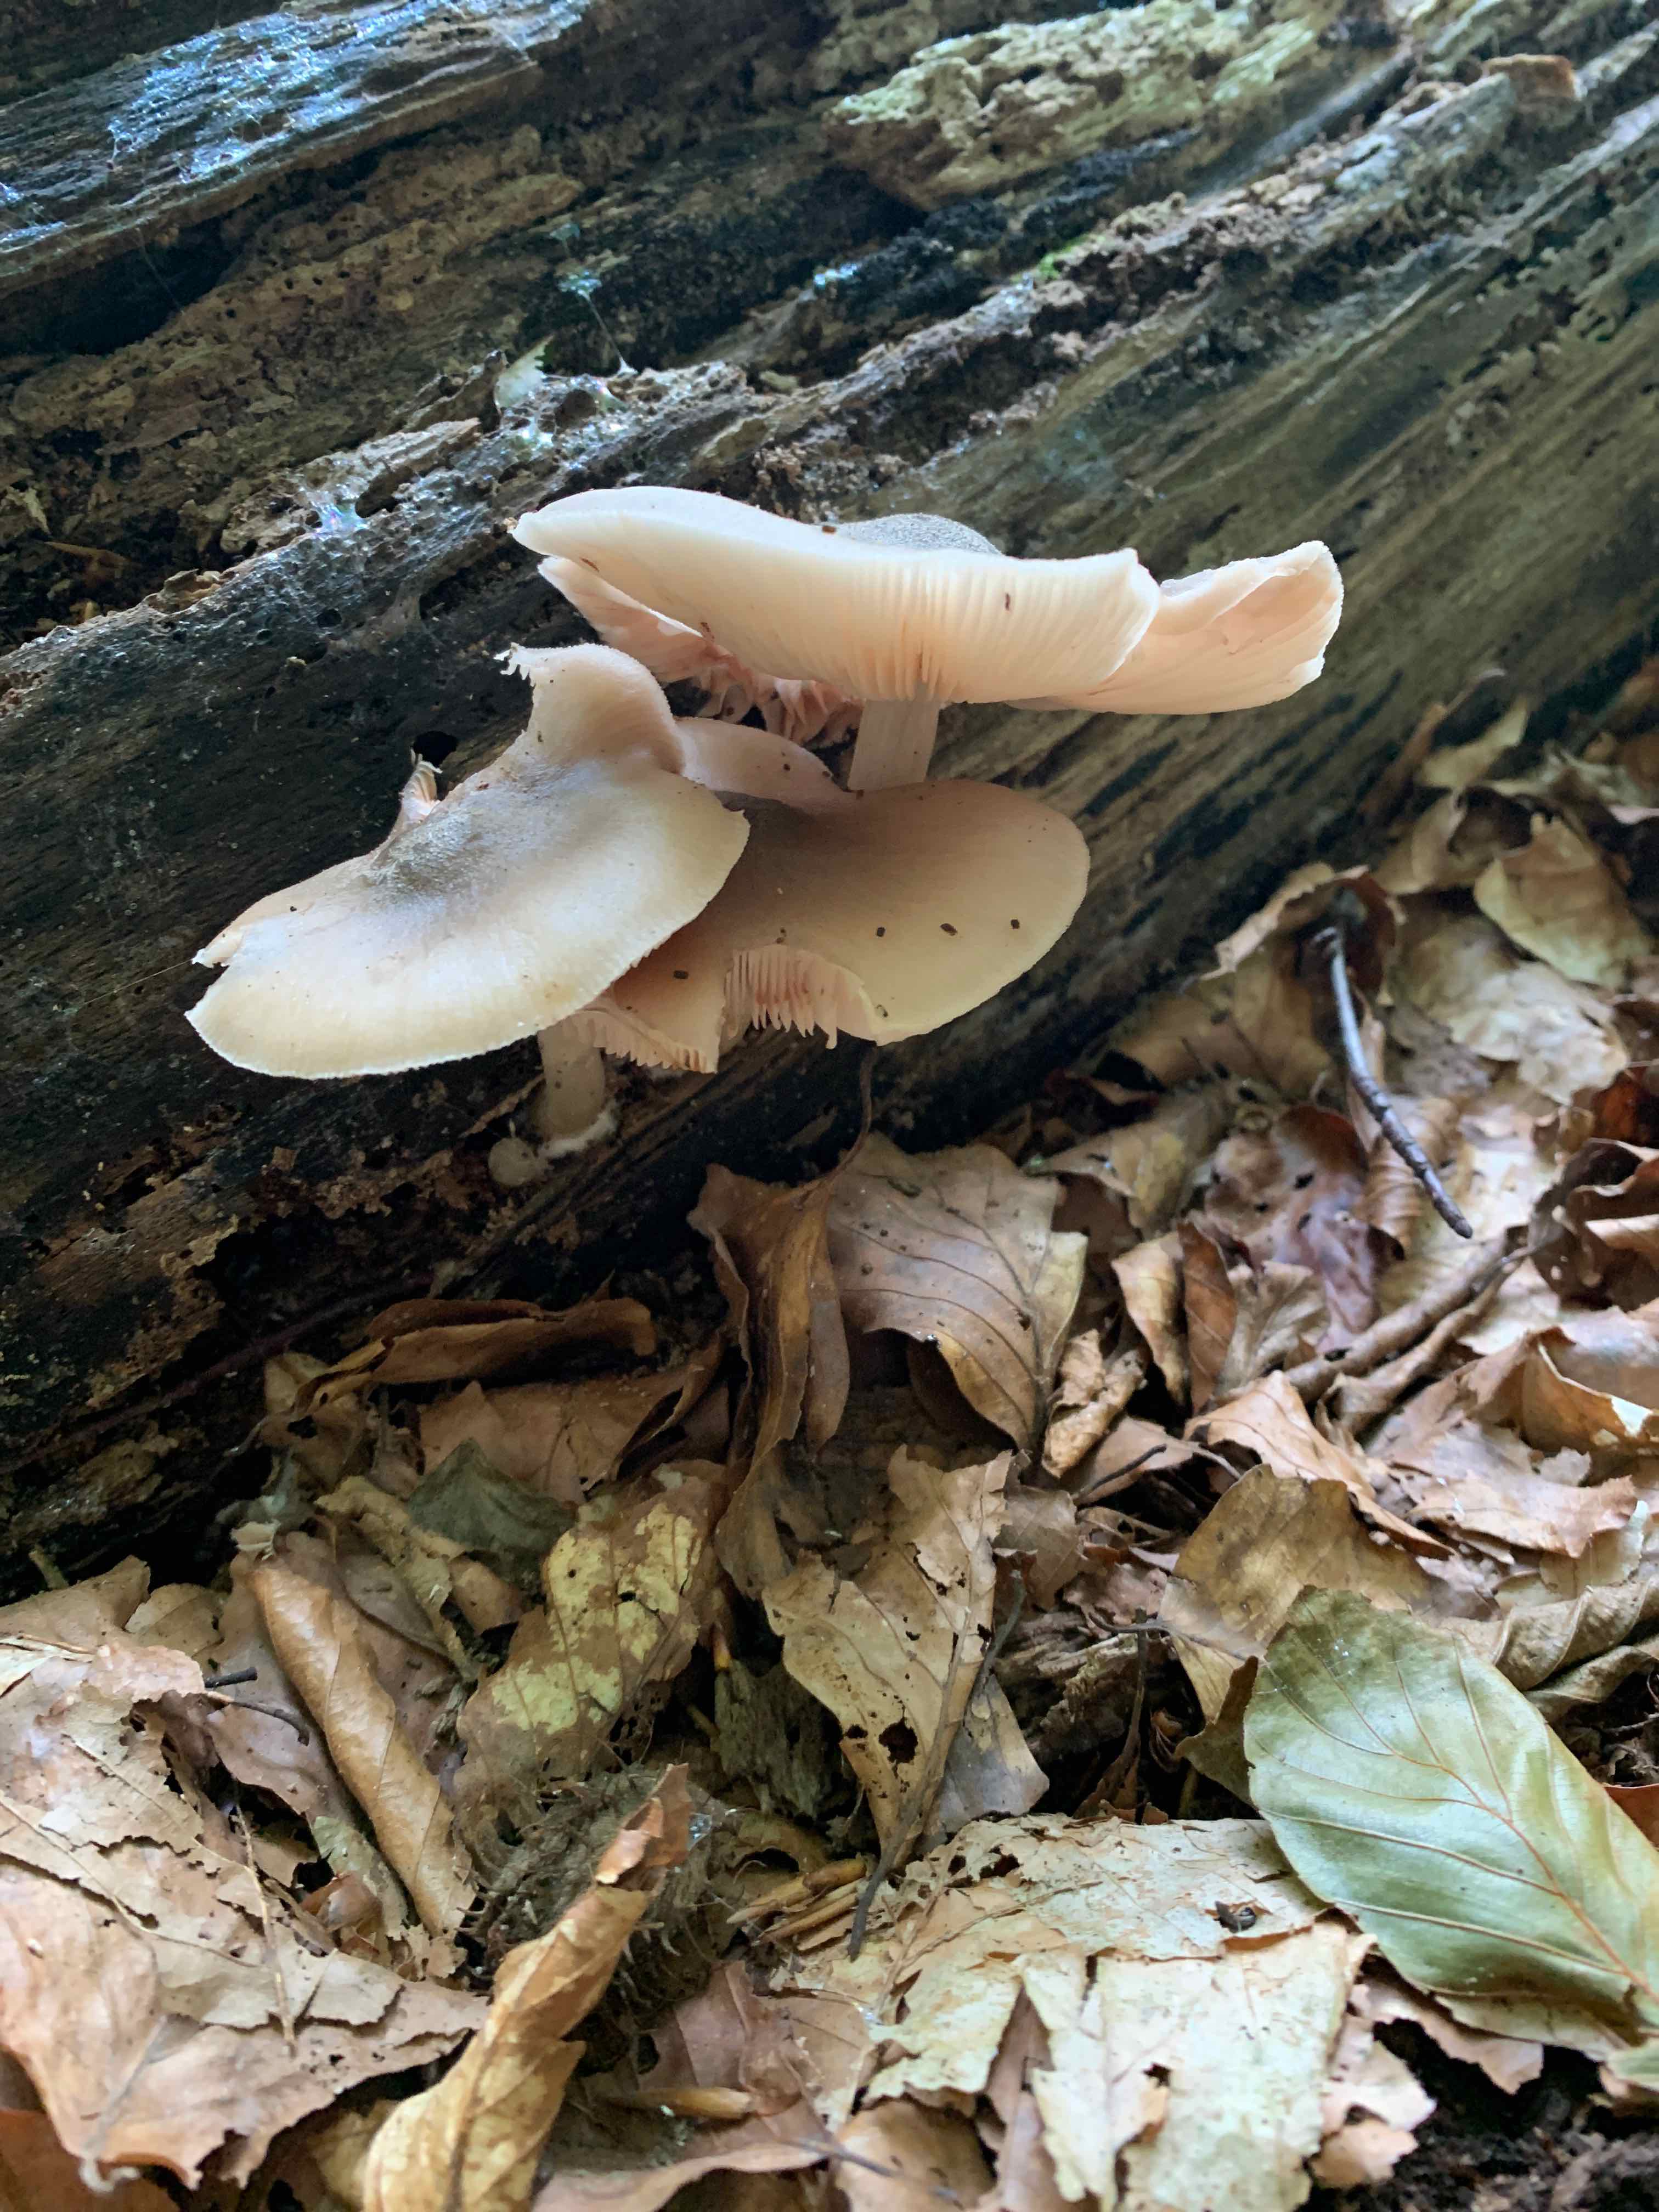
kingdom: Fungi
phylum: Basidiomycota
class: Agaricomycetes
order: Agaricales
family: Pluteaceae
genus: Pluteus
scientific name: Pluteus salicinus
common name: stiv skærmhat
